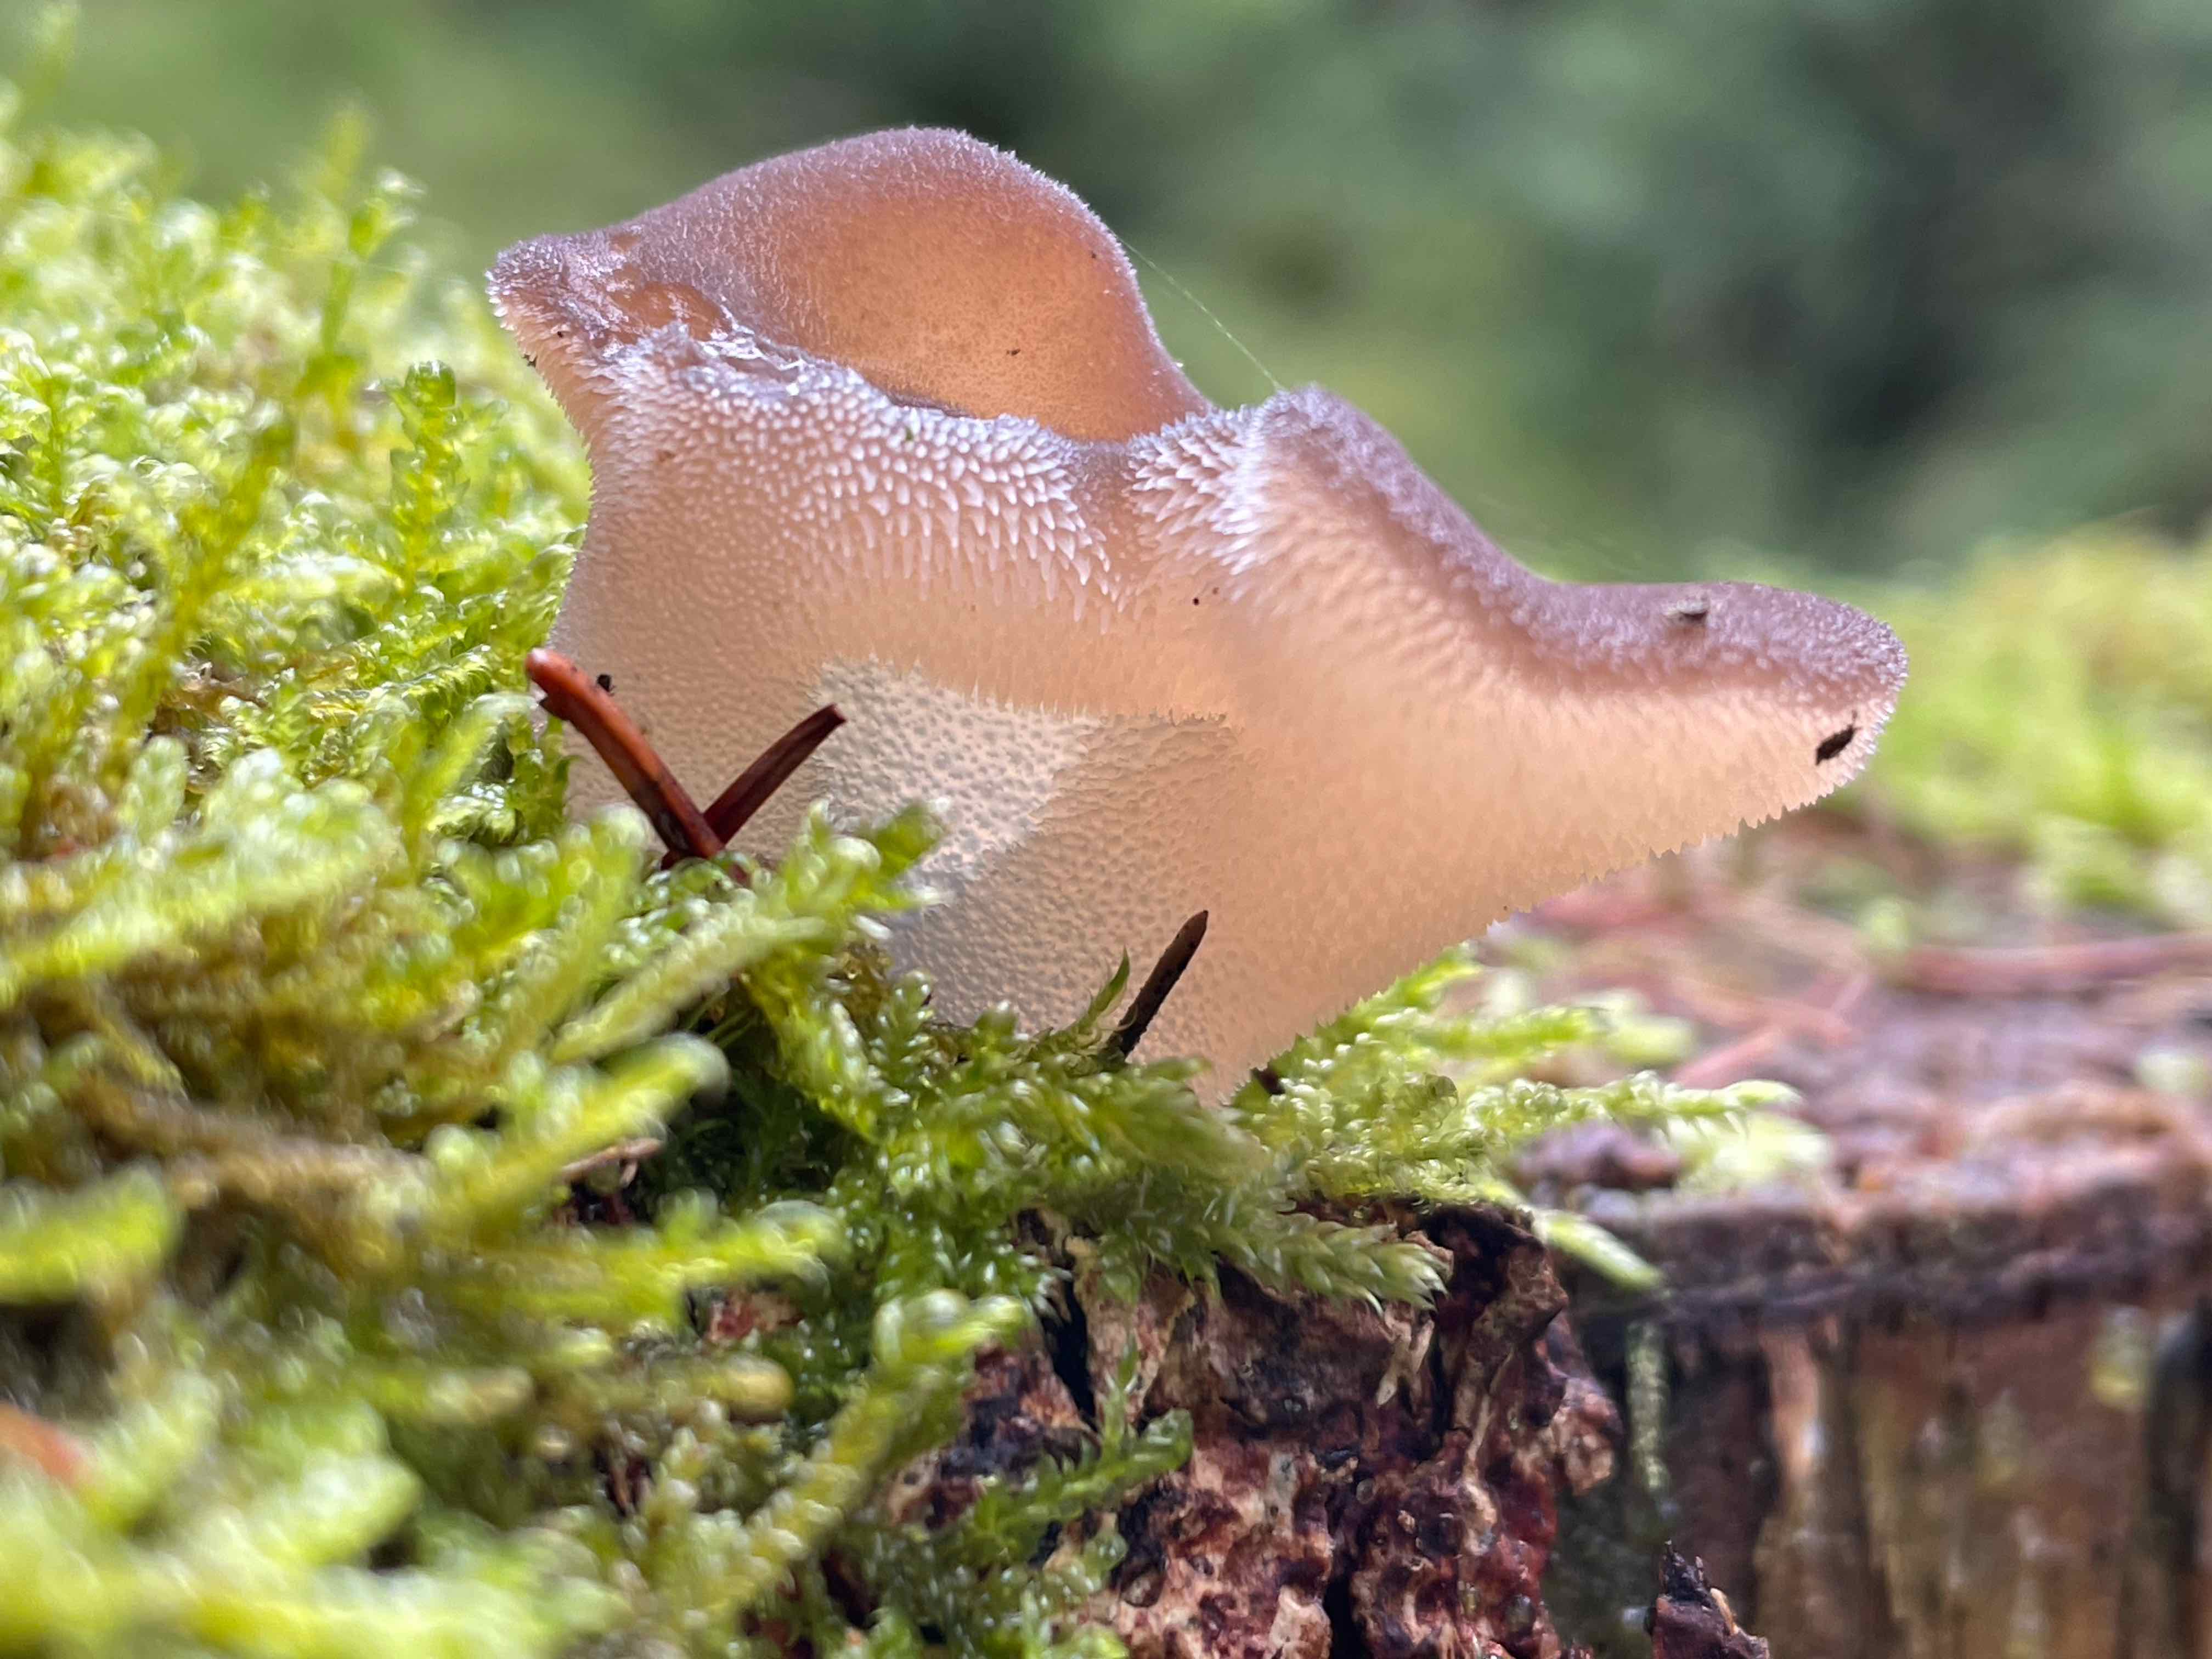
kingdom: Fungi
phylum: Basidiomycota
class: Agaricomycetes
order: Auriculariales
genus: Pseudohydnum
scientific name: Pseudohydnum gelatinosum
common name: bævretand
